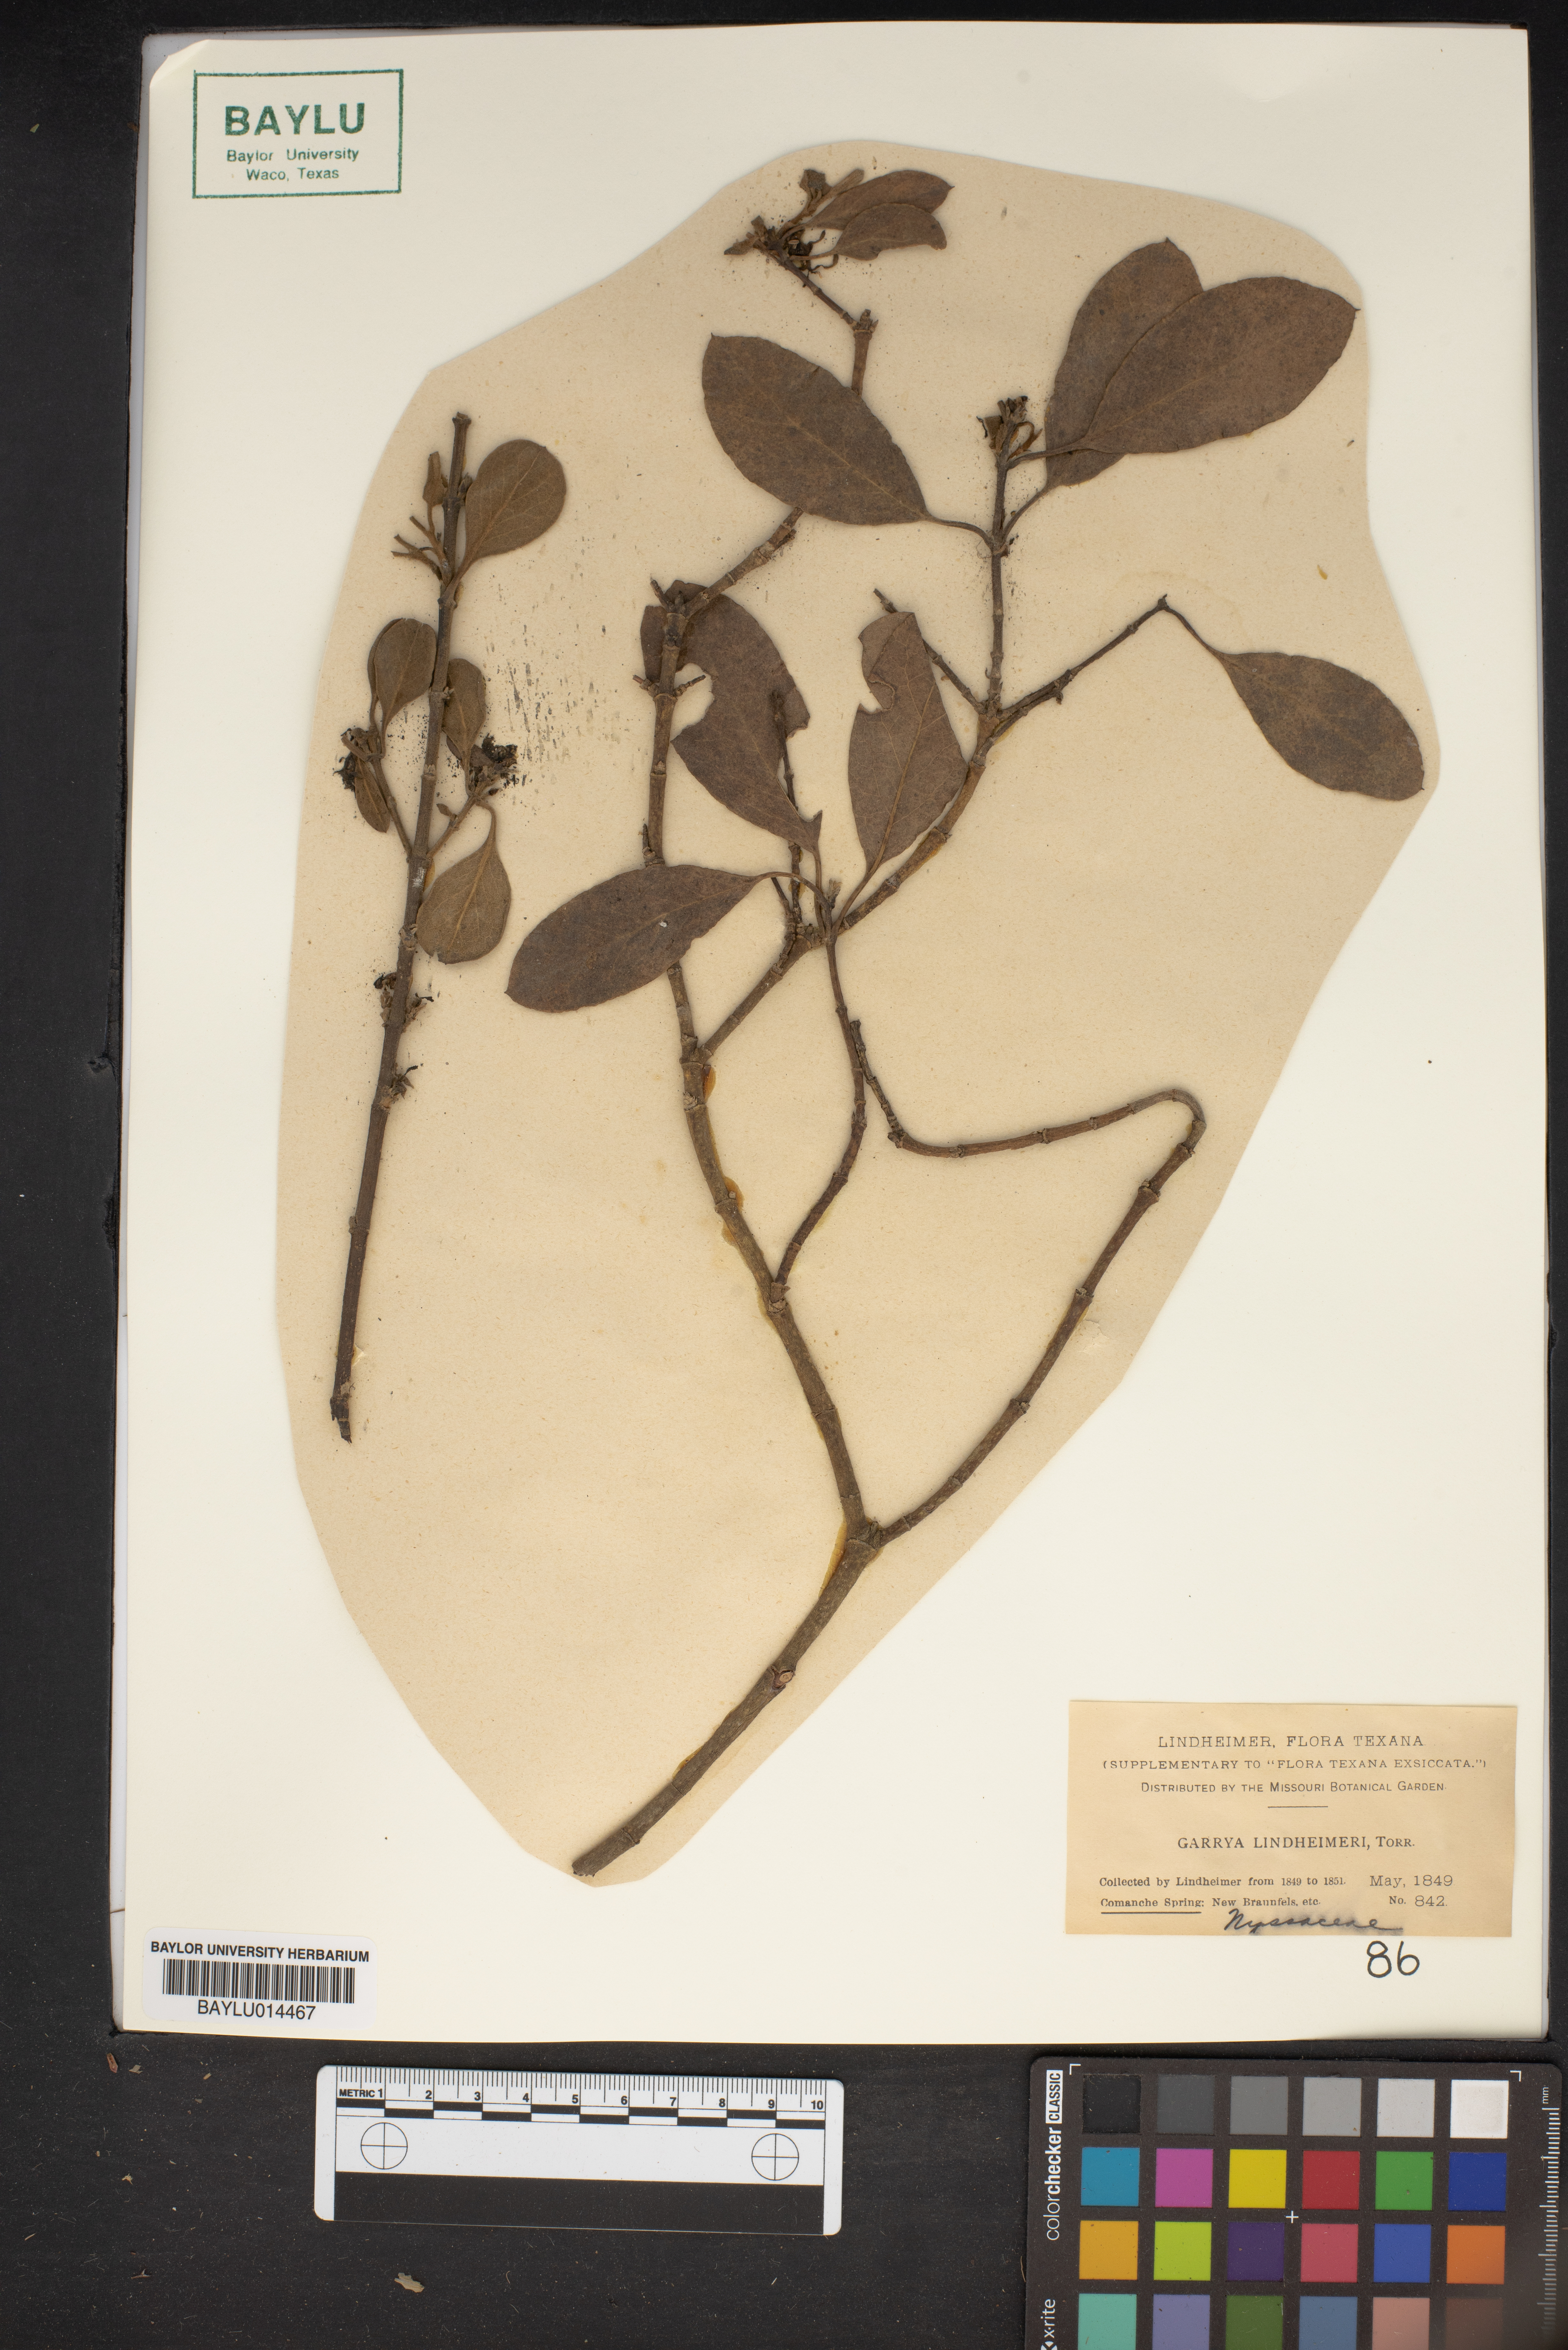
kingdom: Plantae
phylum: Tracheophyta
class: Magnoliopsida
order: Garryales
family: Garryaceae
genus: Garrya
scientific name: Garrya lindheimeri
